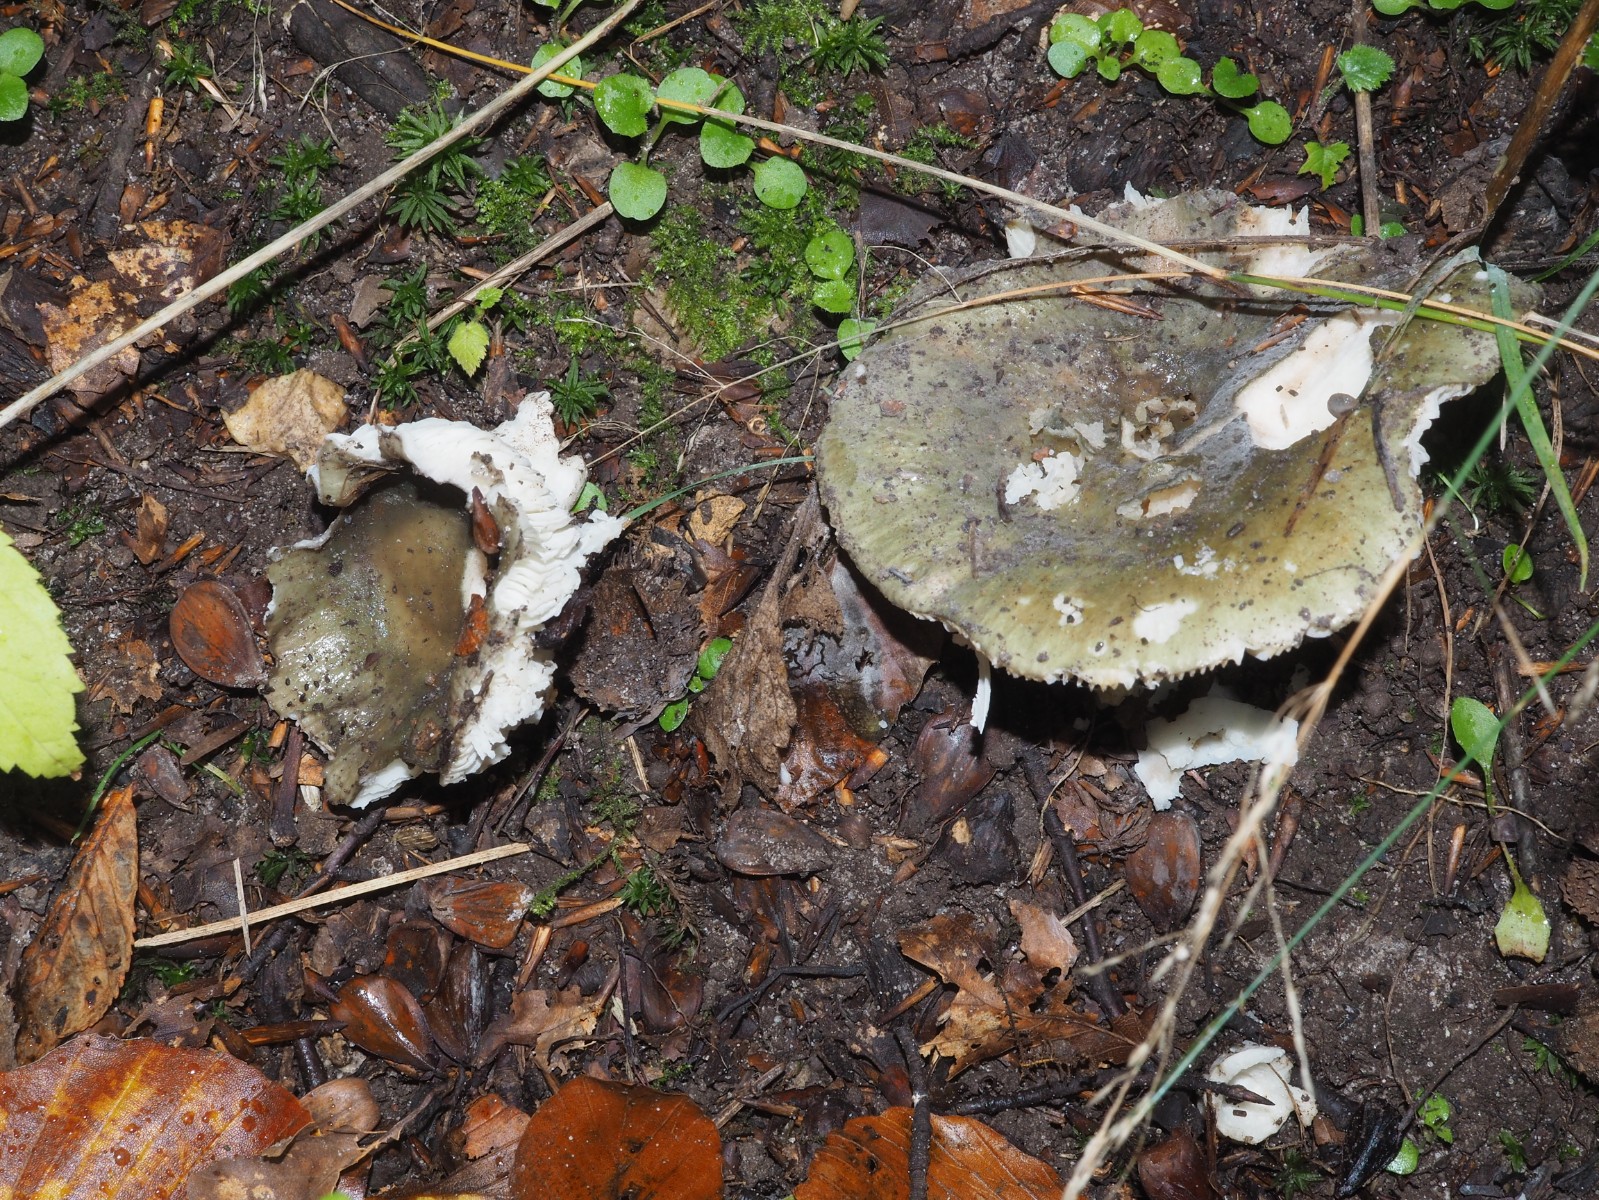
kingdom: Fungi
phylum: Basidiomycota
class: Agaricomycetes
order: Russulales
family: Russulaceae
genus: Russula
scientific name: Russula heterophylla
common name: gaffelbladet skørhat
